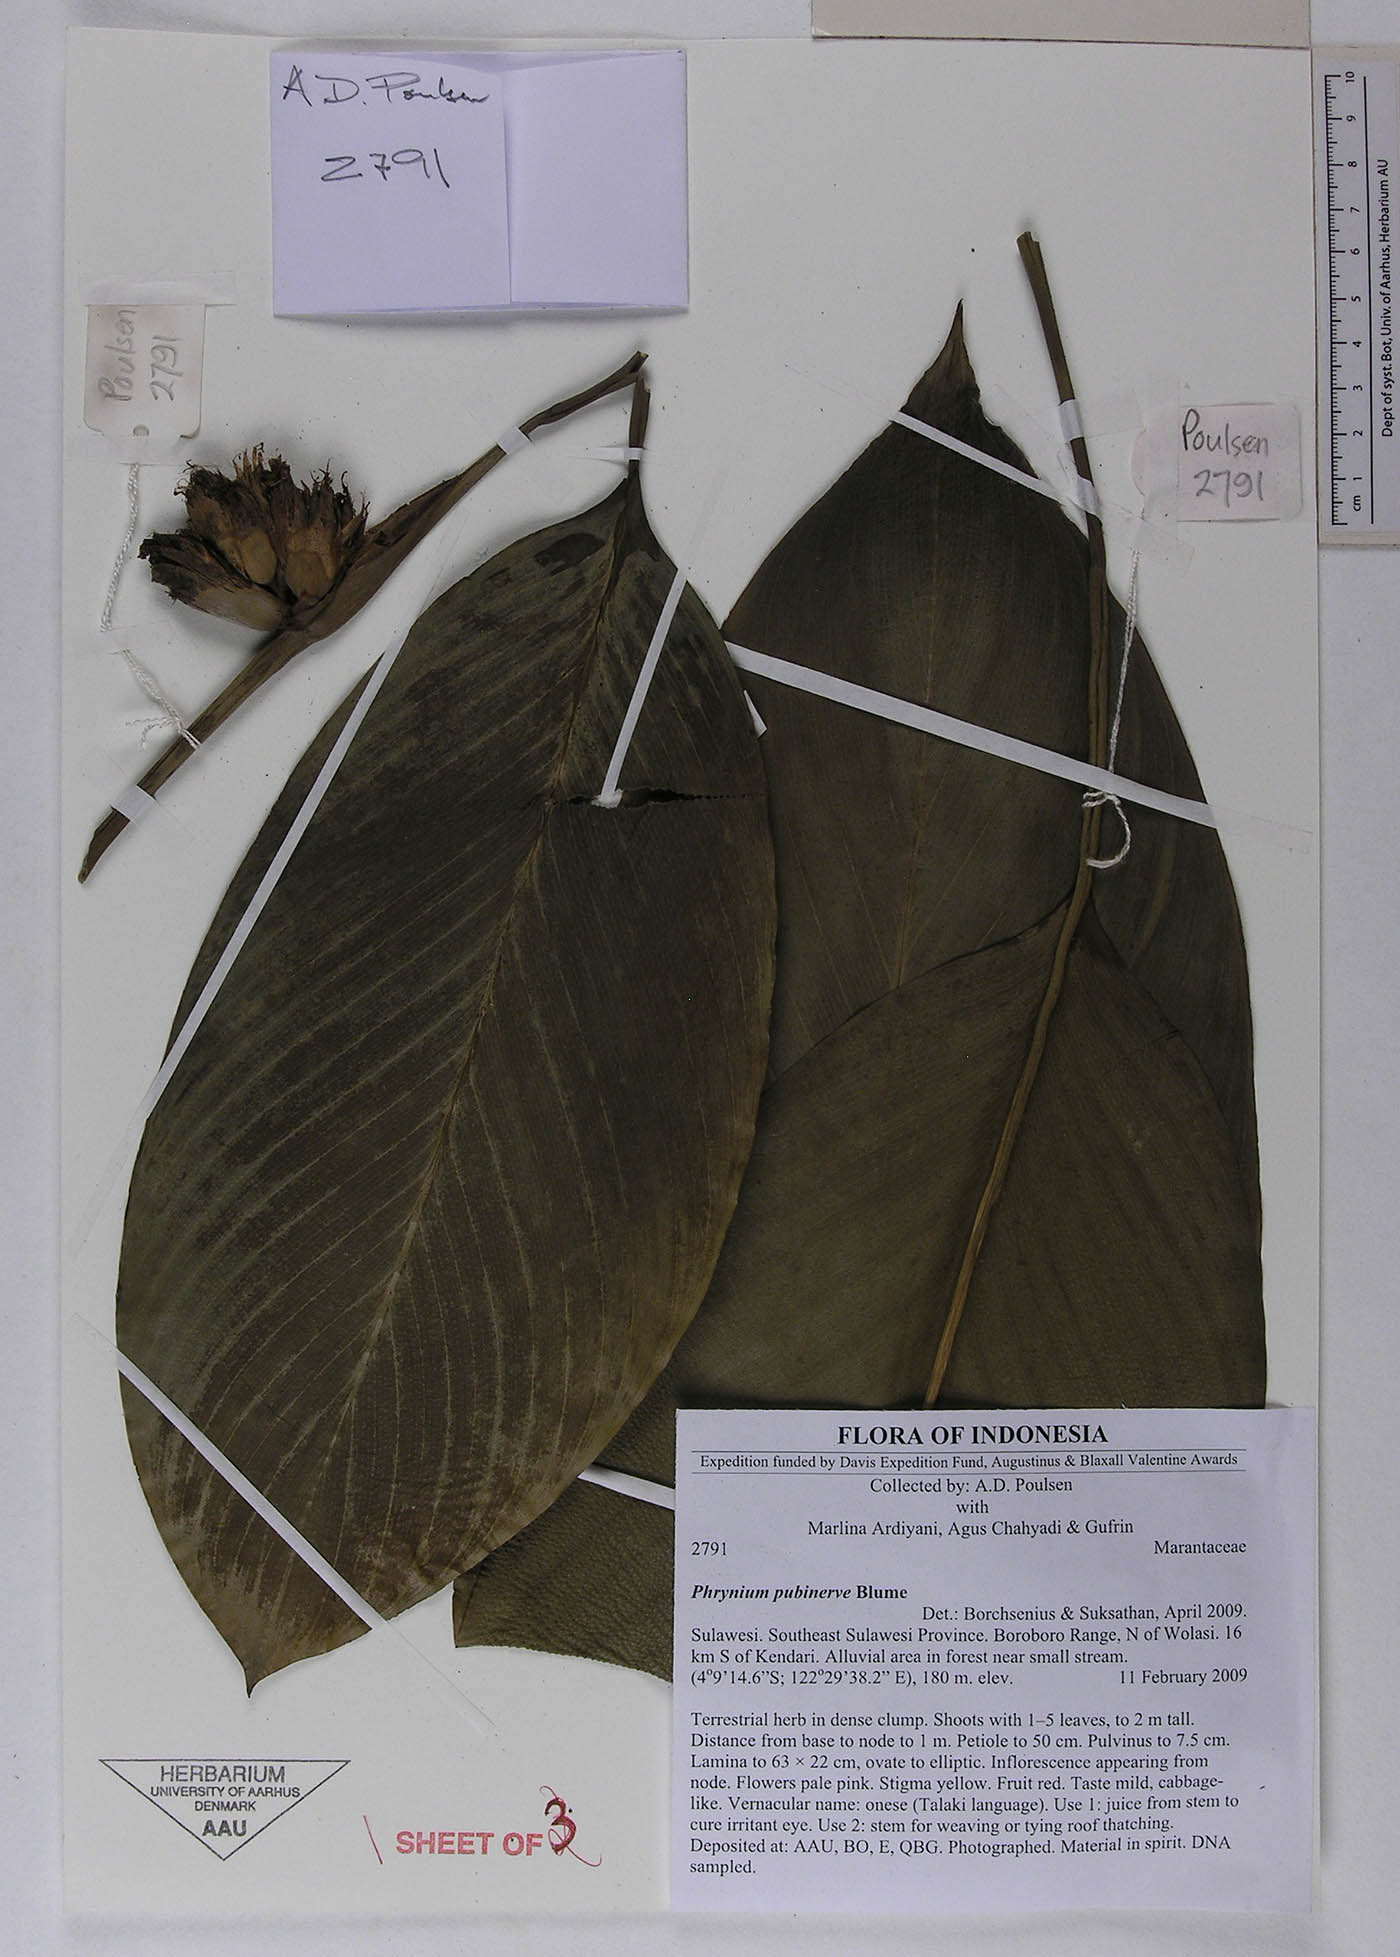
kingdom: Plantae
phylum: Tracheophyta
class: Liliopsida
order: Zingiberales
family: Marantaceae
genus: Phrynium
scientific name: Phrynium pubinerve
